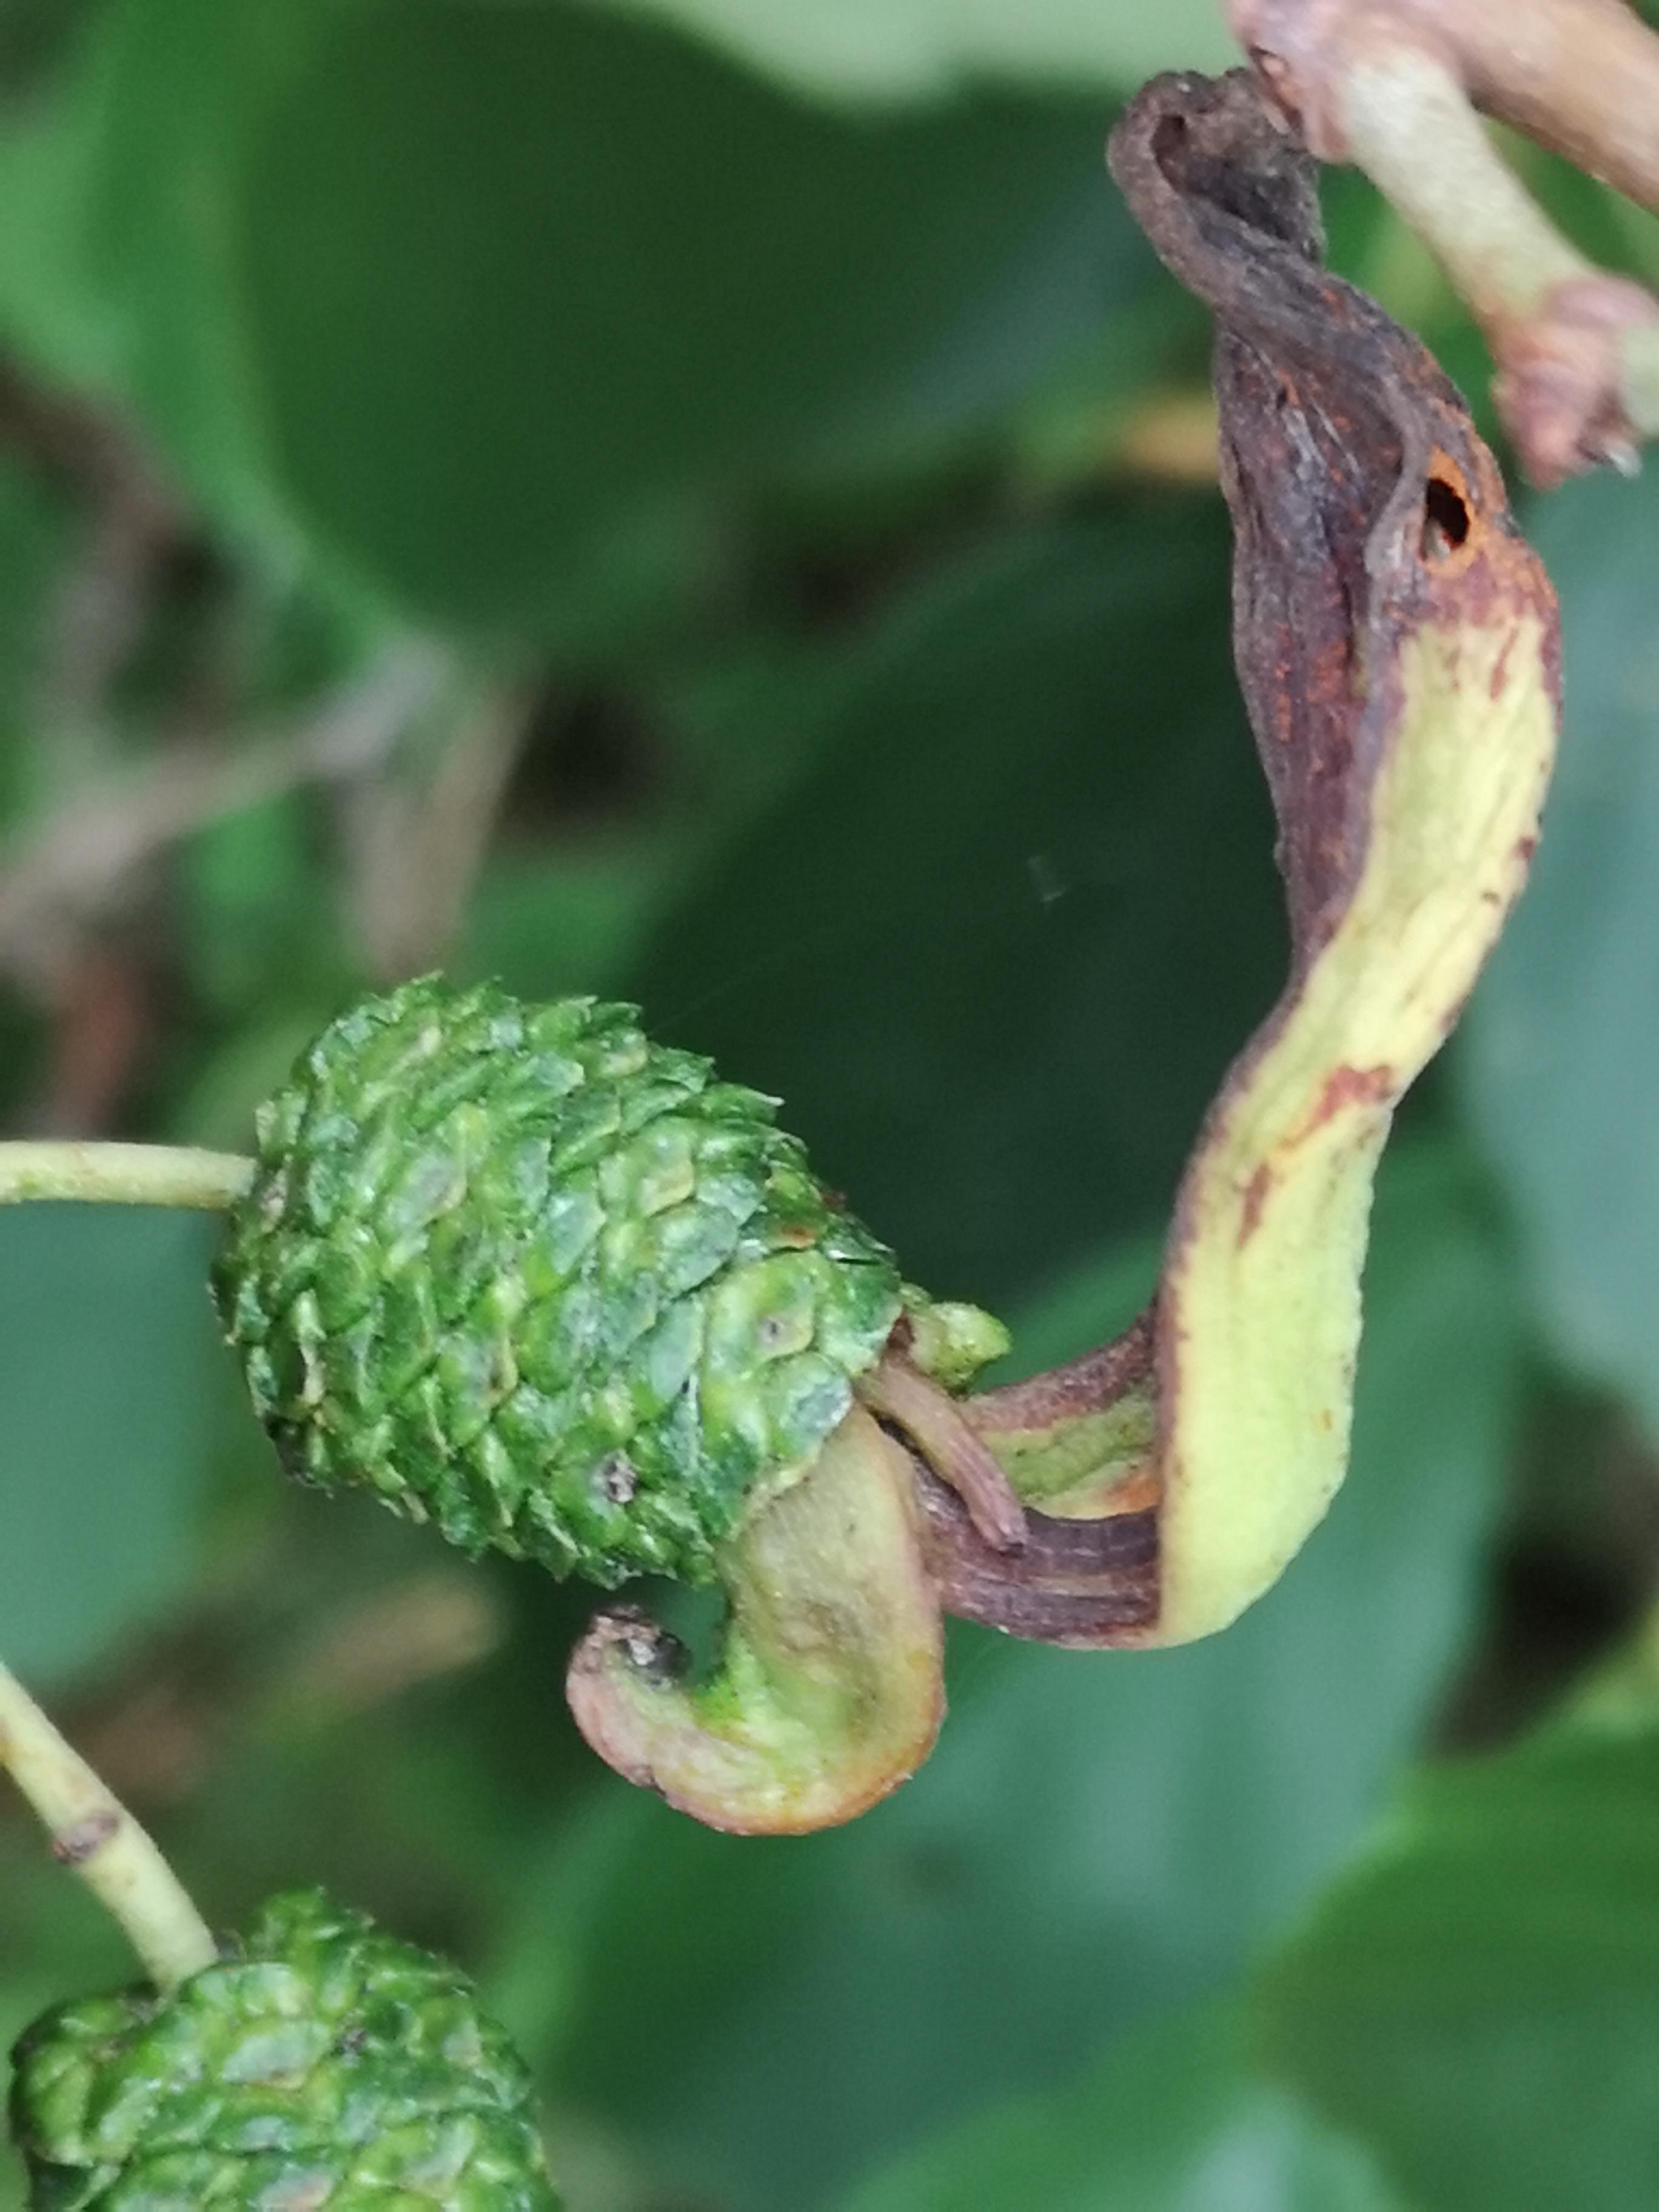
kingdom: Fungi
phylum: Ascomycota
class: Taphrinomycetes
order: Taphrinales
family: Taphrinaceae
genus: Taphrina
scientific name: Taphrina alni
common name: Alder tongue
